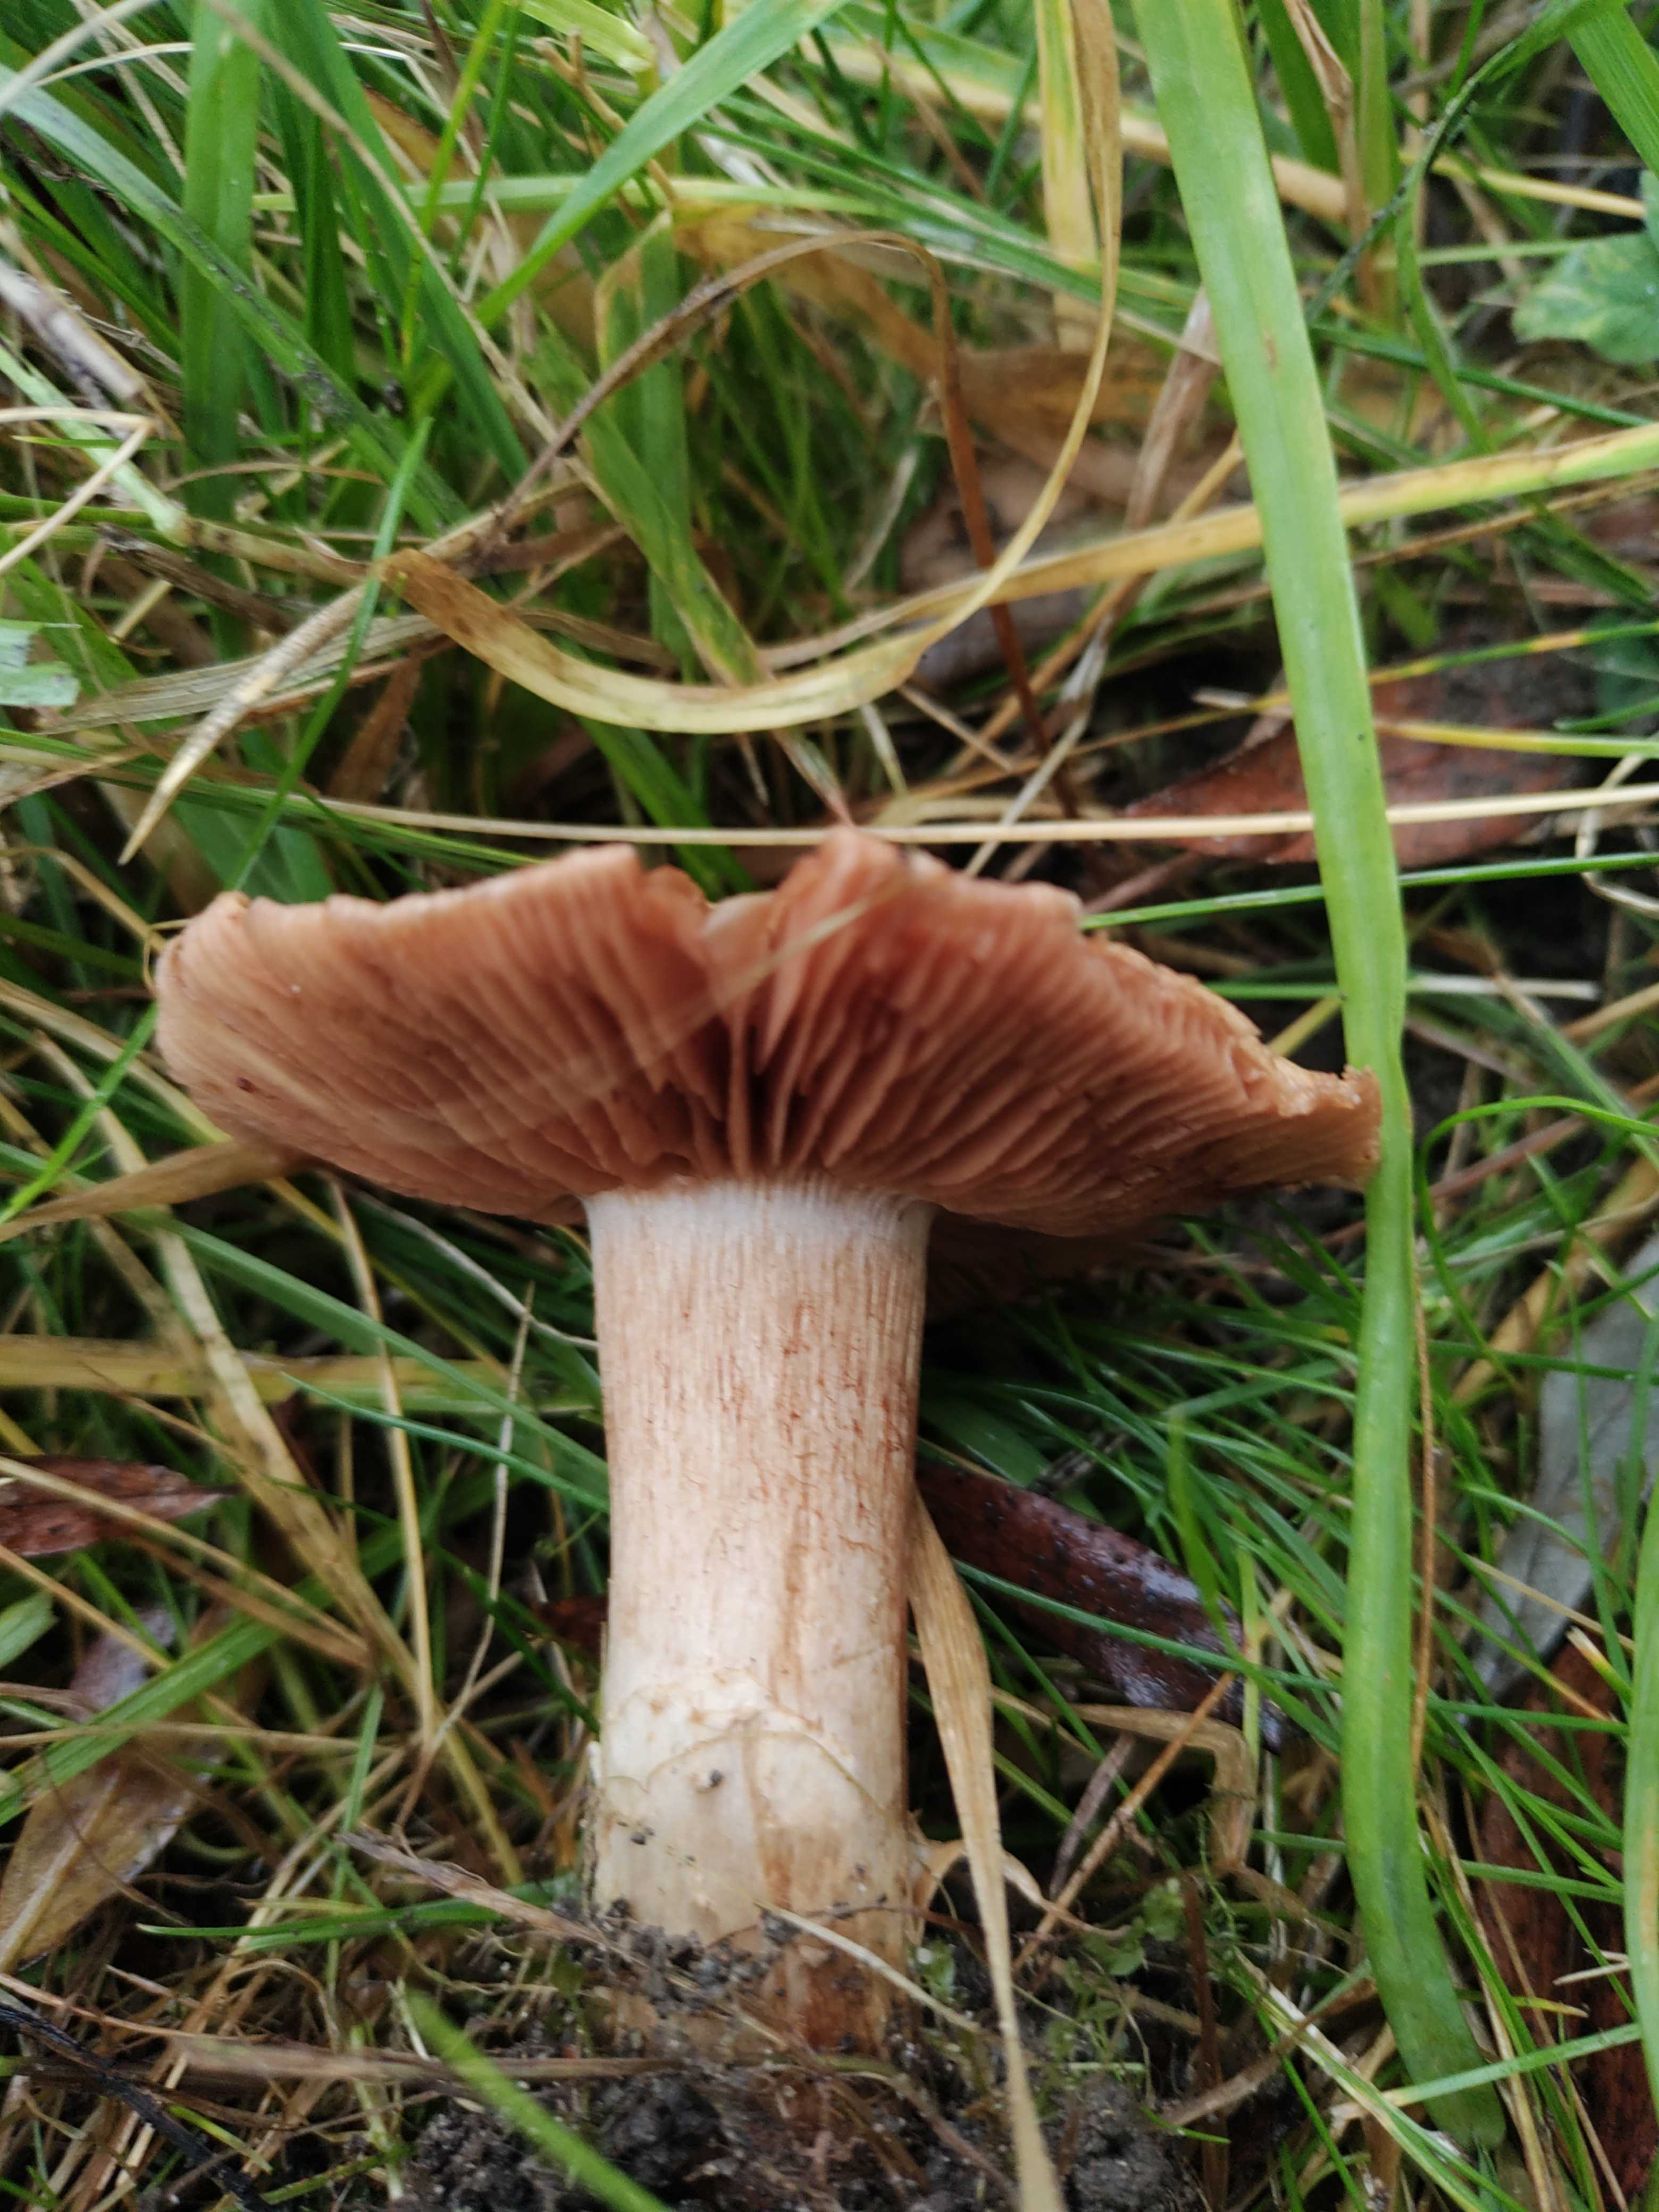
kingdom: Fungi
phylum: Basidiomycota
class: Agaricomycetes
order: Agaricales
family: Cortinariaceae
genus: Cortinarius
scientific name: Cortinarius
